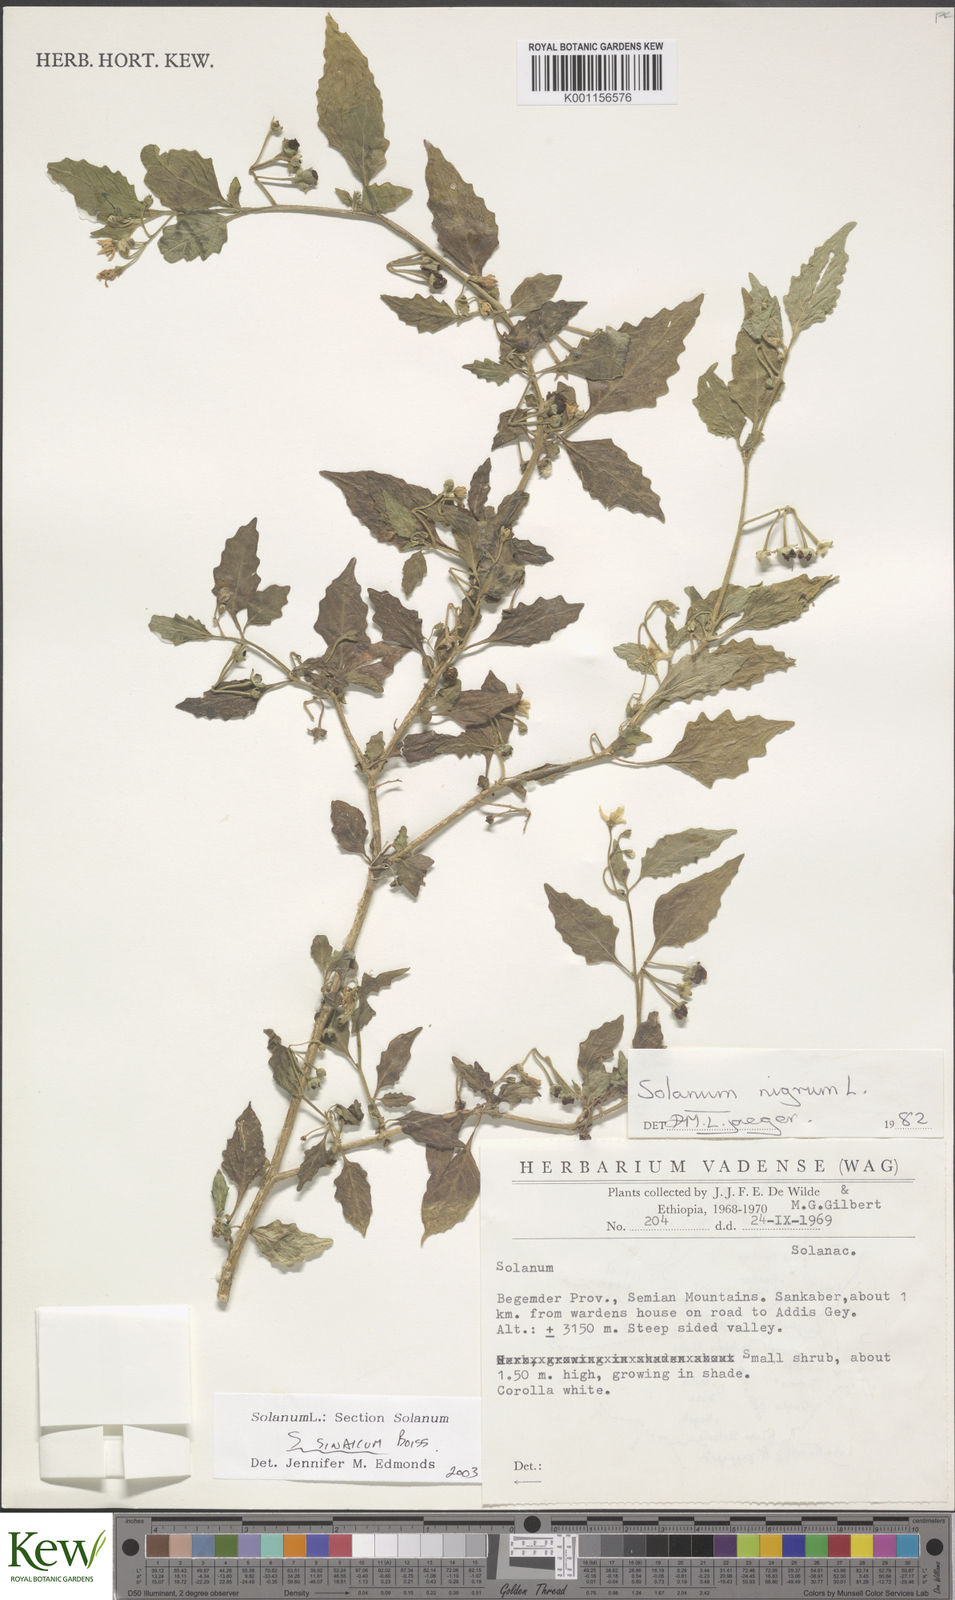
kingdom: Plantae
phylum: Tracheophyta
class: Magnoliopsida
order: Solanales
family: Solanaceae
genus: Solanum
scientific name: Solanum memphiticum
